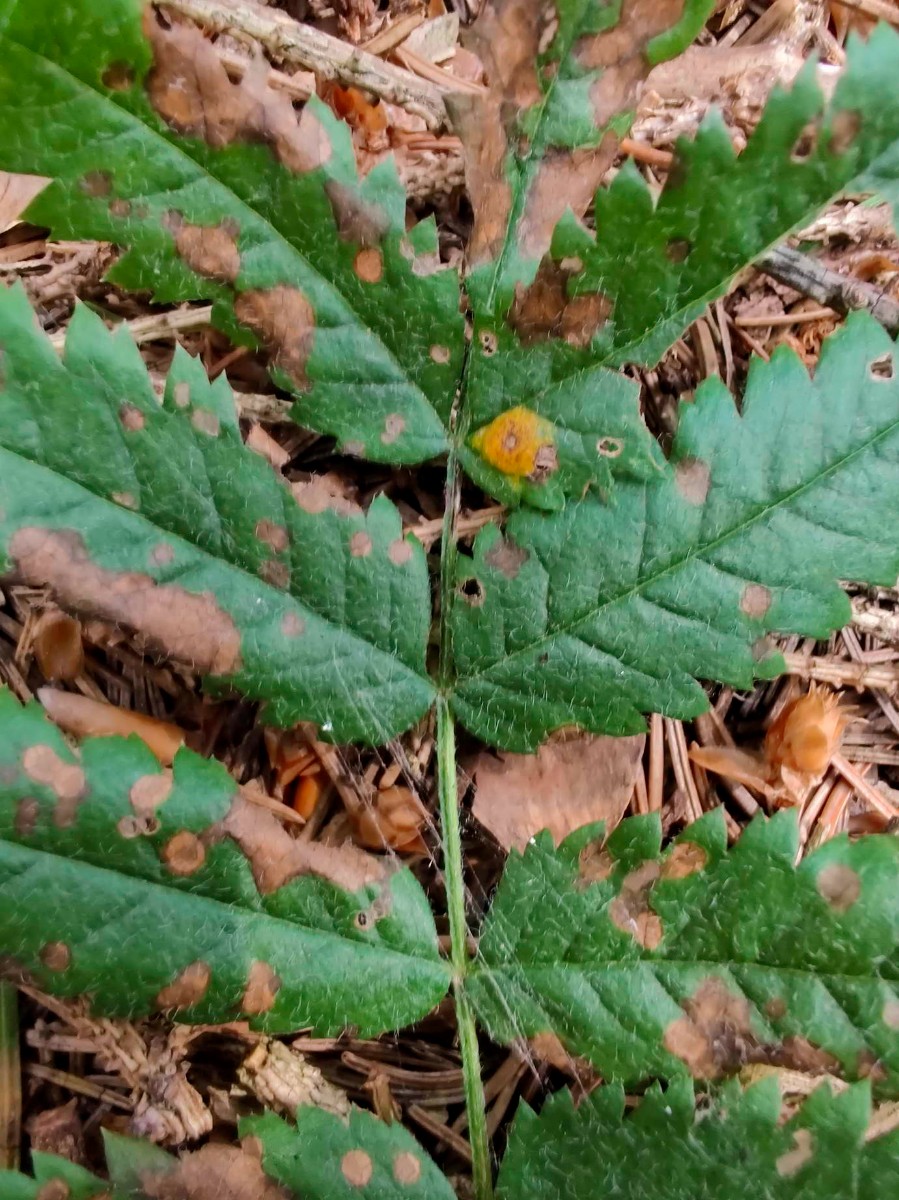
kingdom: Fungi
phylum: Basidiomycota
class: Pucciniomycetes
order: Pucciniales
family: Gymnosporangiaceae
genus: Gymnosporangium
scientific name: Gymnosporangium cornutum
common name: rønnehorn-bævrerust
